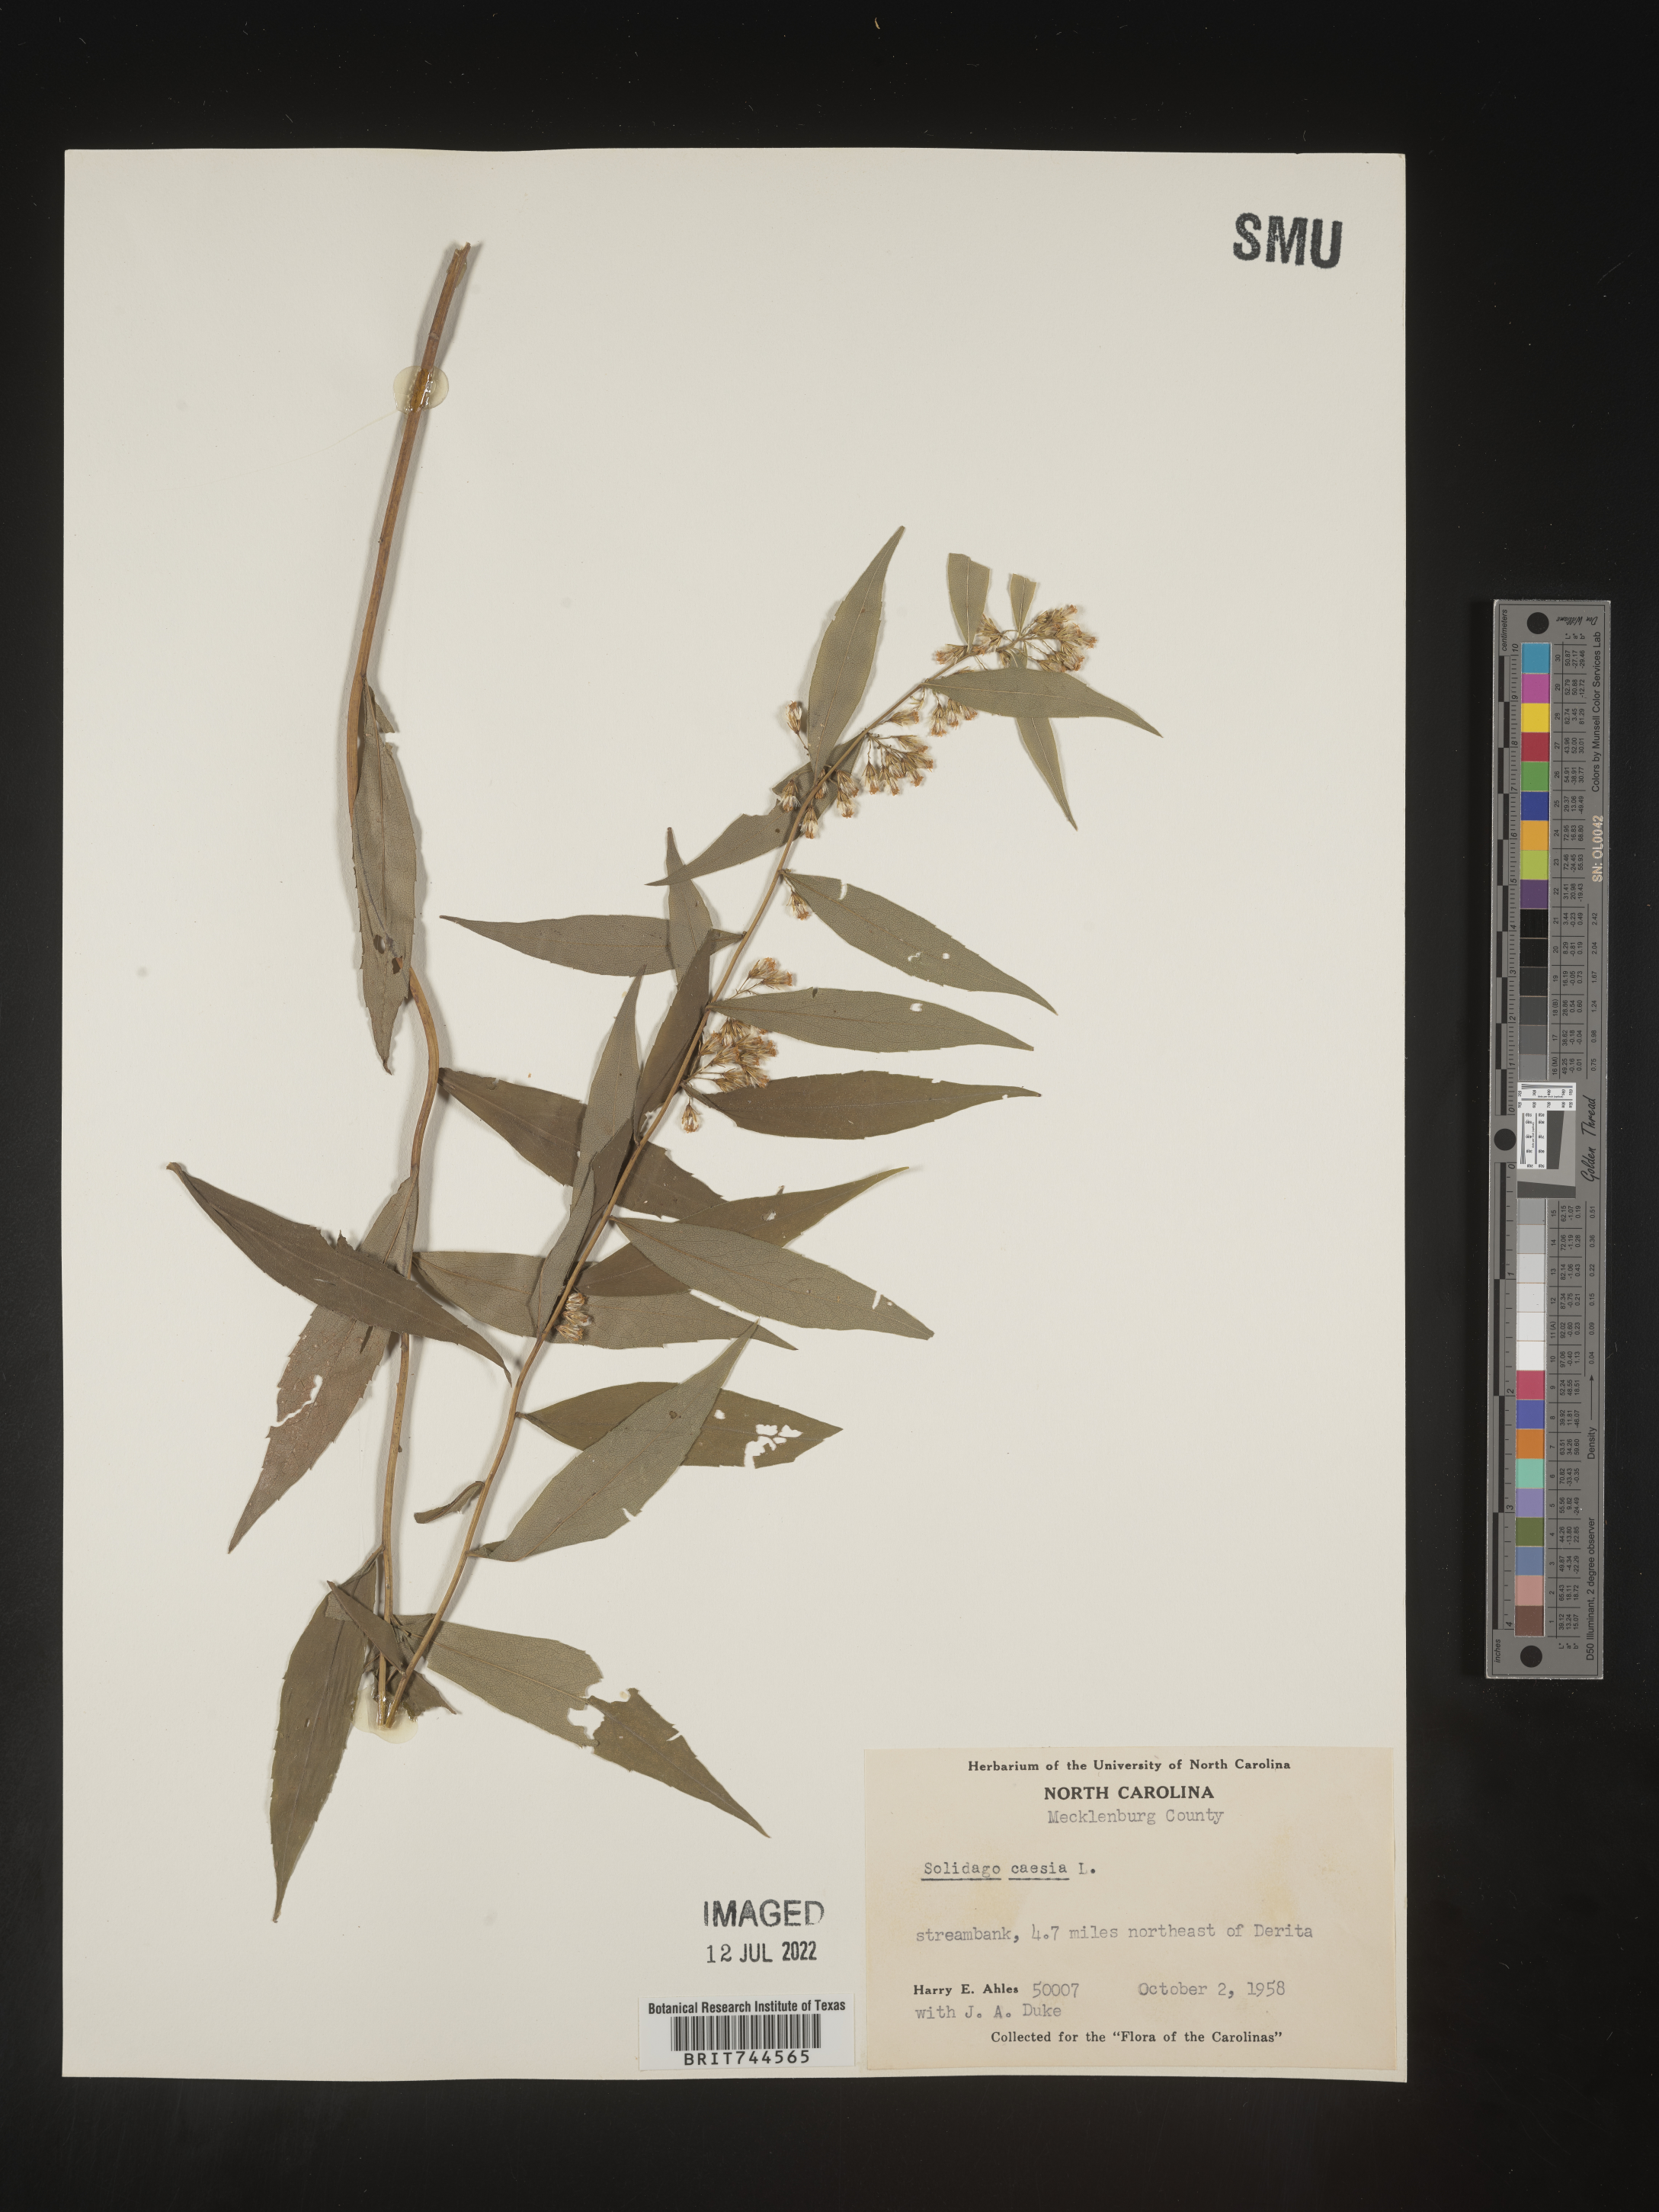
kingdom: Plantae
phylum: Tracheophyta
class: Magnoliopsida
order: Asterales
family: Asteraceae
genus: Solidago
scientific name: Solidago caesia
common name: Woodland goldenrod
